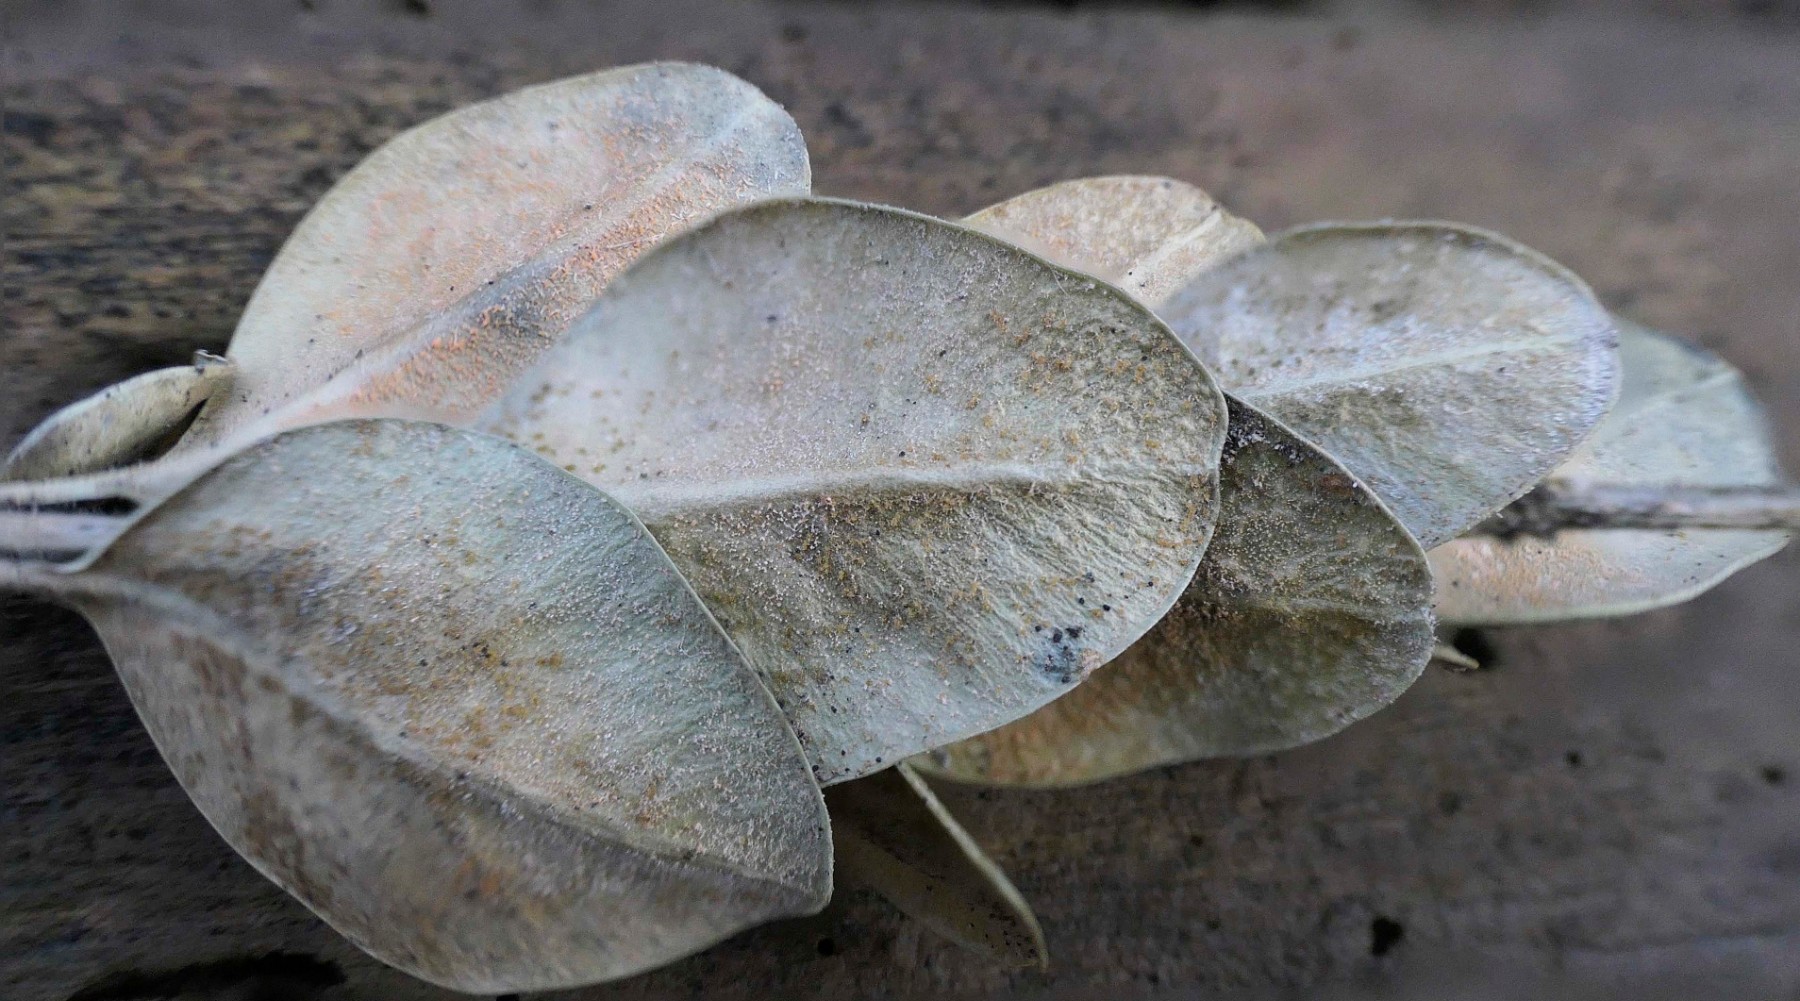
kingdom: Fungi
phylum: Ascomycota
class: Sordariomycetes
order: Hypocreales
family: Nectriaceae
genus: Pseudonectria
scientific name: Pseudonectria buxi
